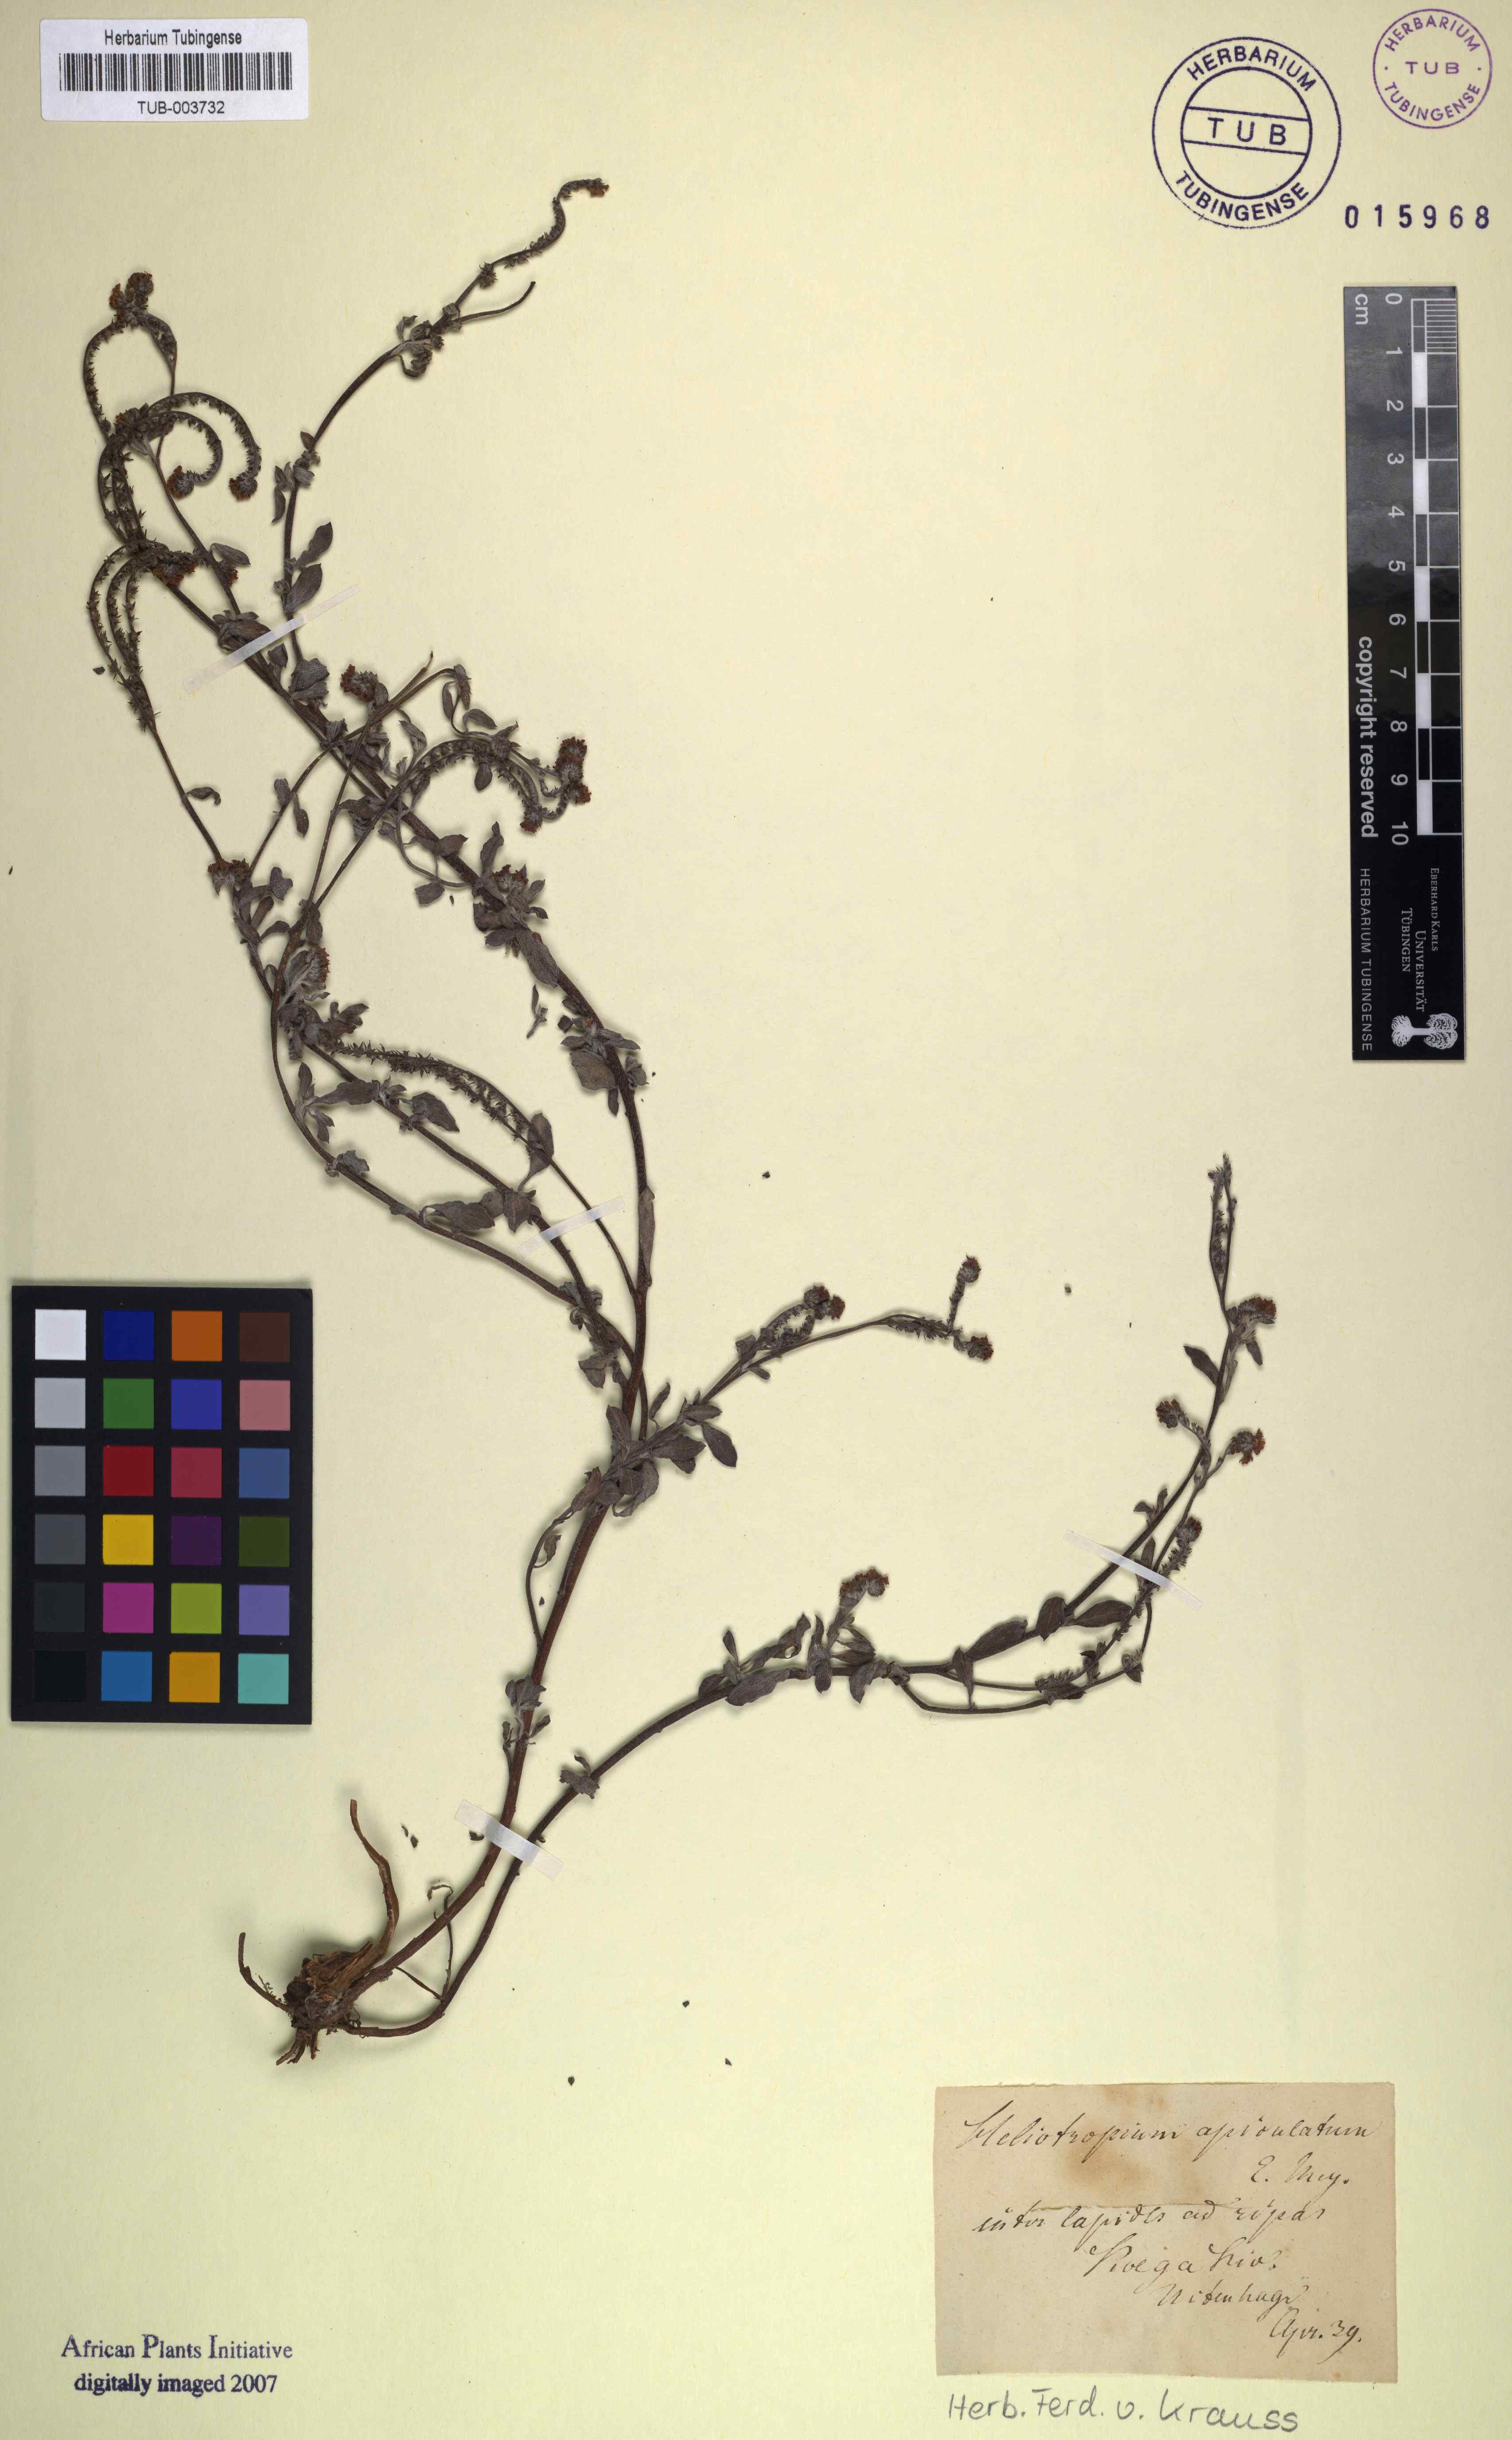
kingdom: Plantae
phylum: Tracheophyta
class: Magnoliopsida
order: Boraginales
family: Heliotropiaceae
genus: Euploca
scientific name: Euploca ovalifolia
